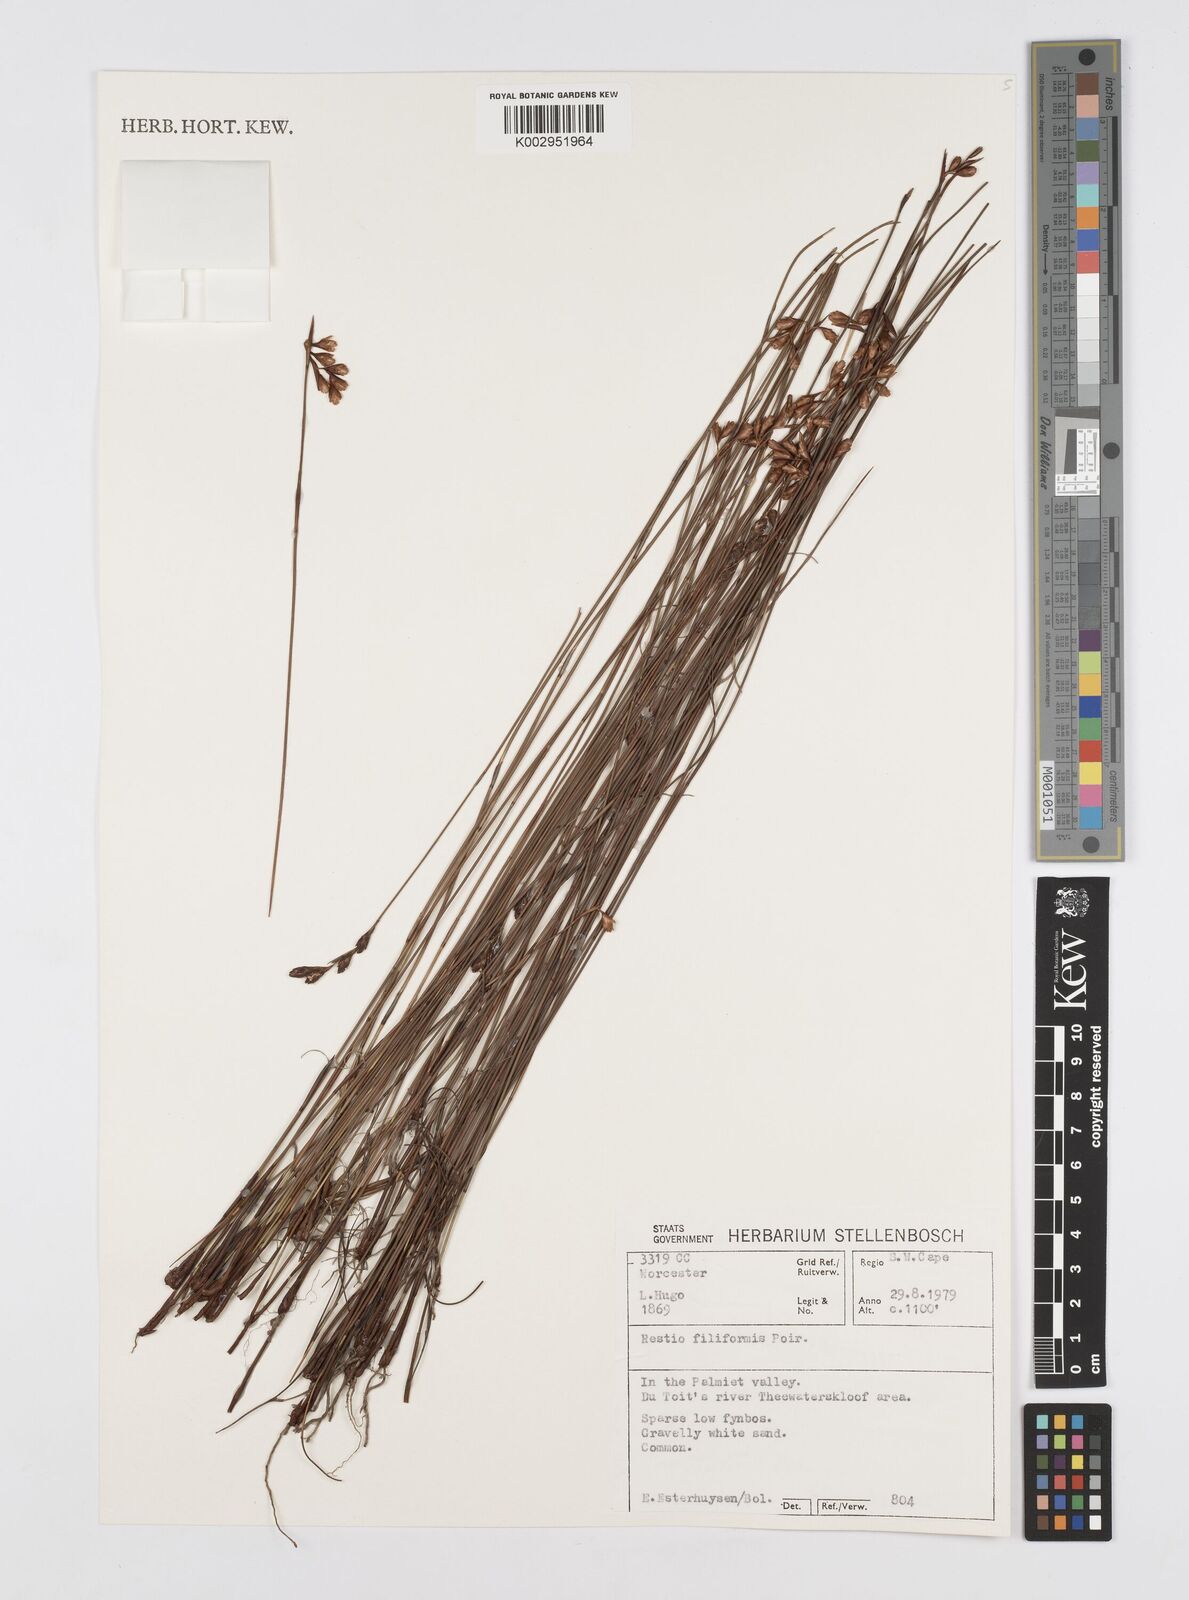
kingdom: Plantae
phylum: Tracheophyta
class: Liliopsida
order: Poales
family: Restionaceae
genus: Restio
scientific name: Restio filiformis
